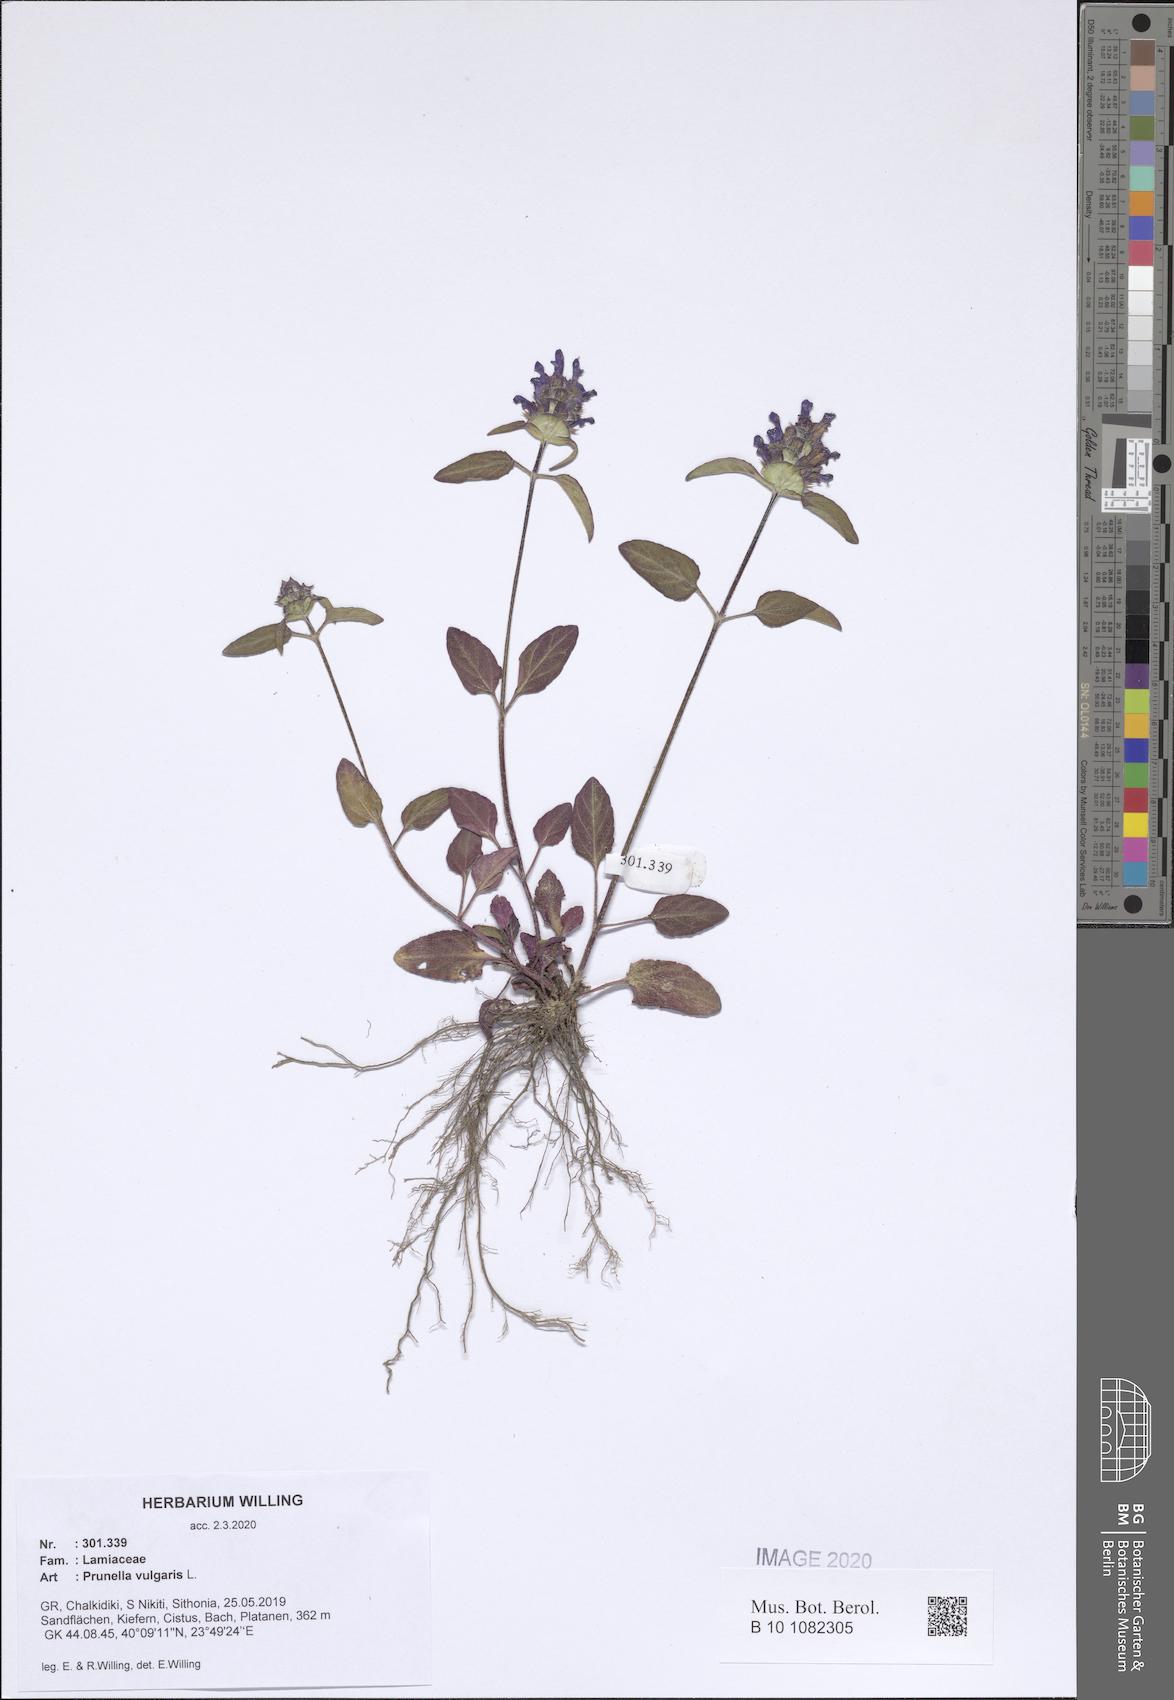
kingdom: Plantae
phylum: Tracheophyta
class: Magnoliopsida
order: Lamiales
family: Lamiaceae
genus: Prunella
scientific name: Prunella vulgaris
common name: Heal-all
